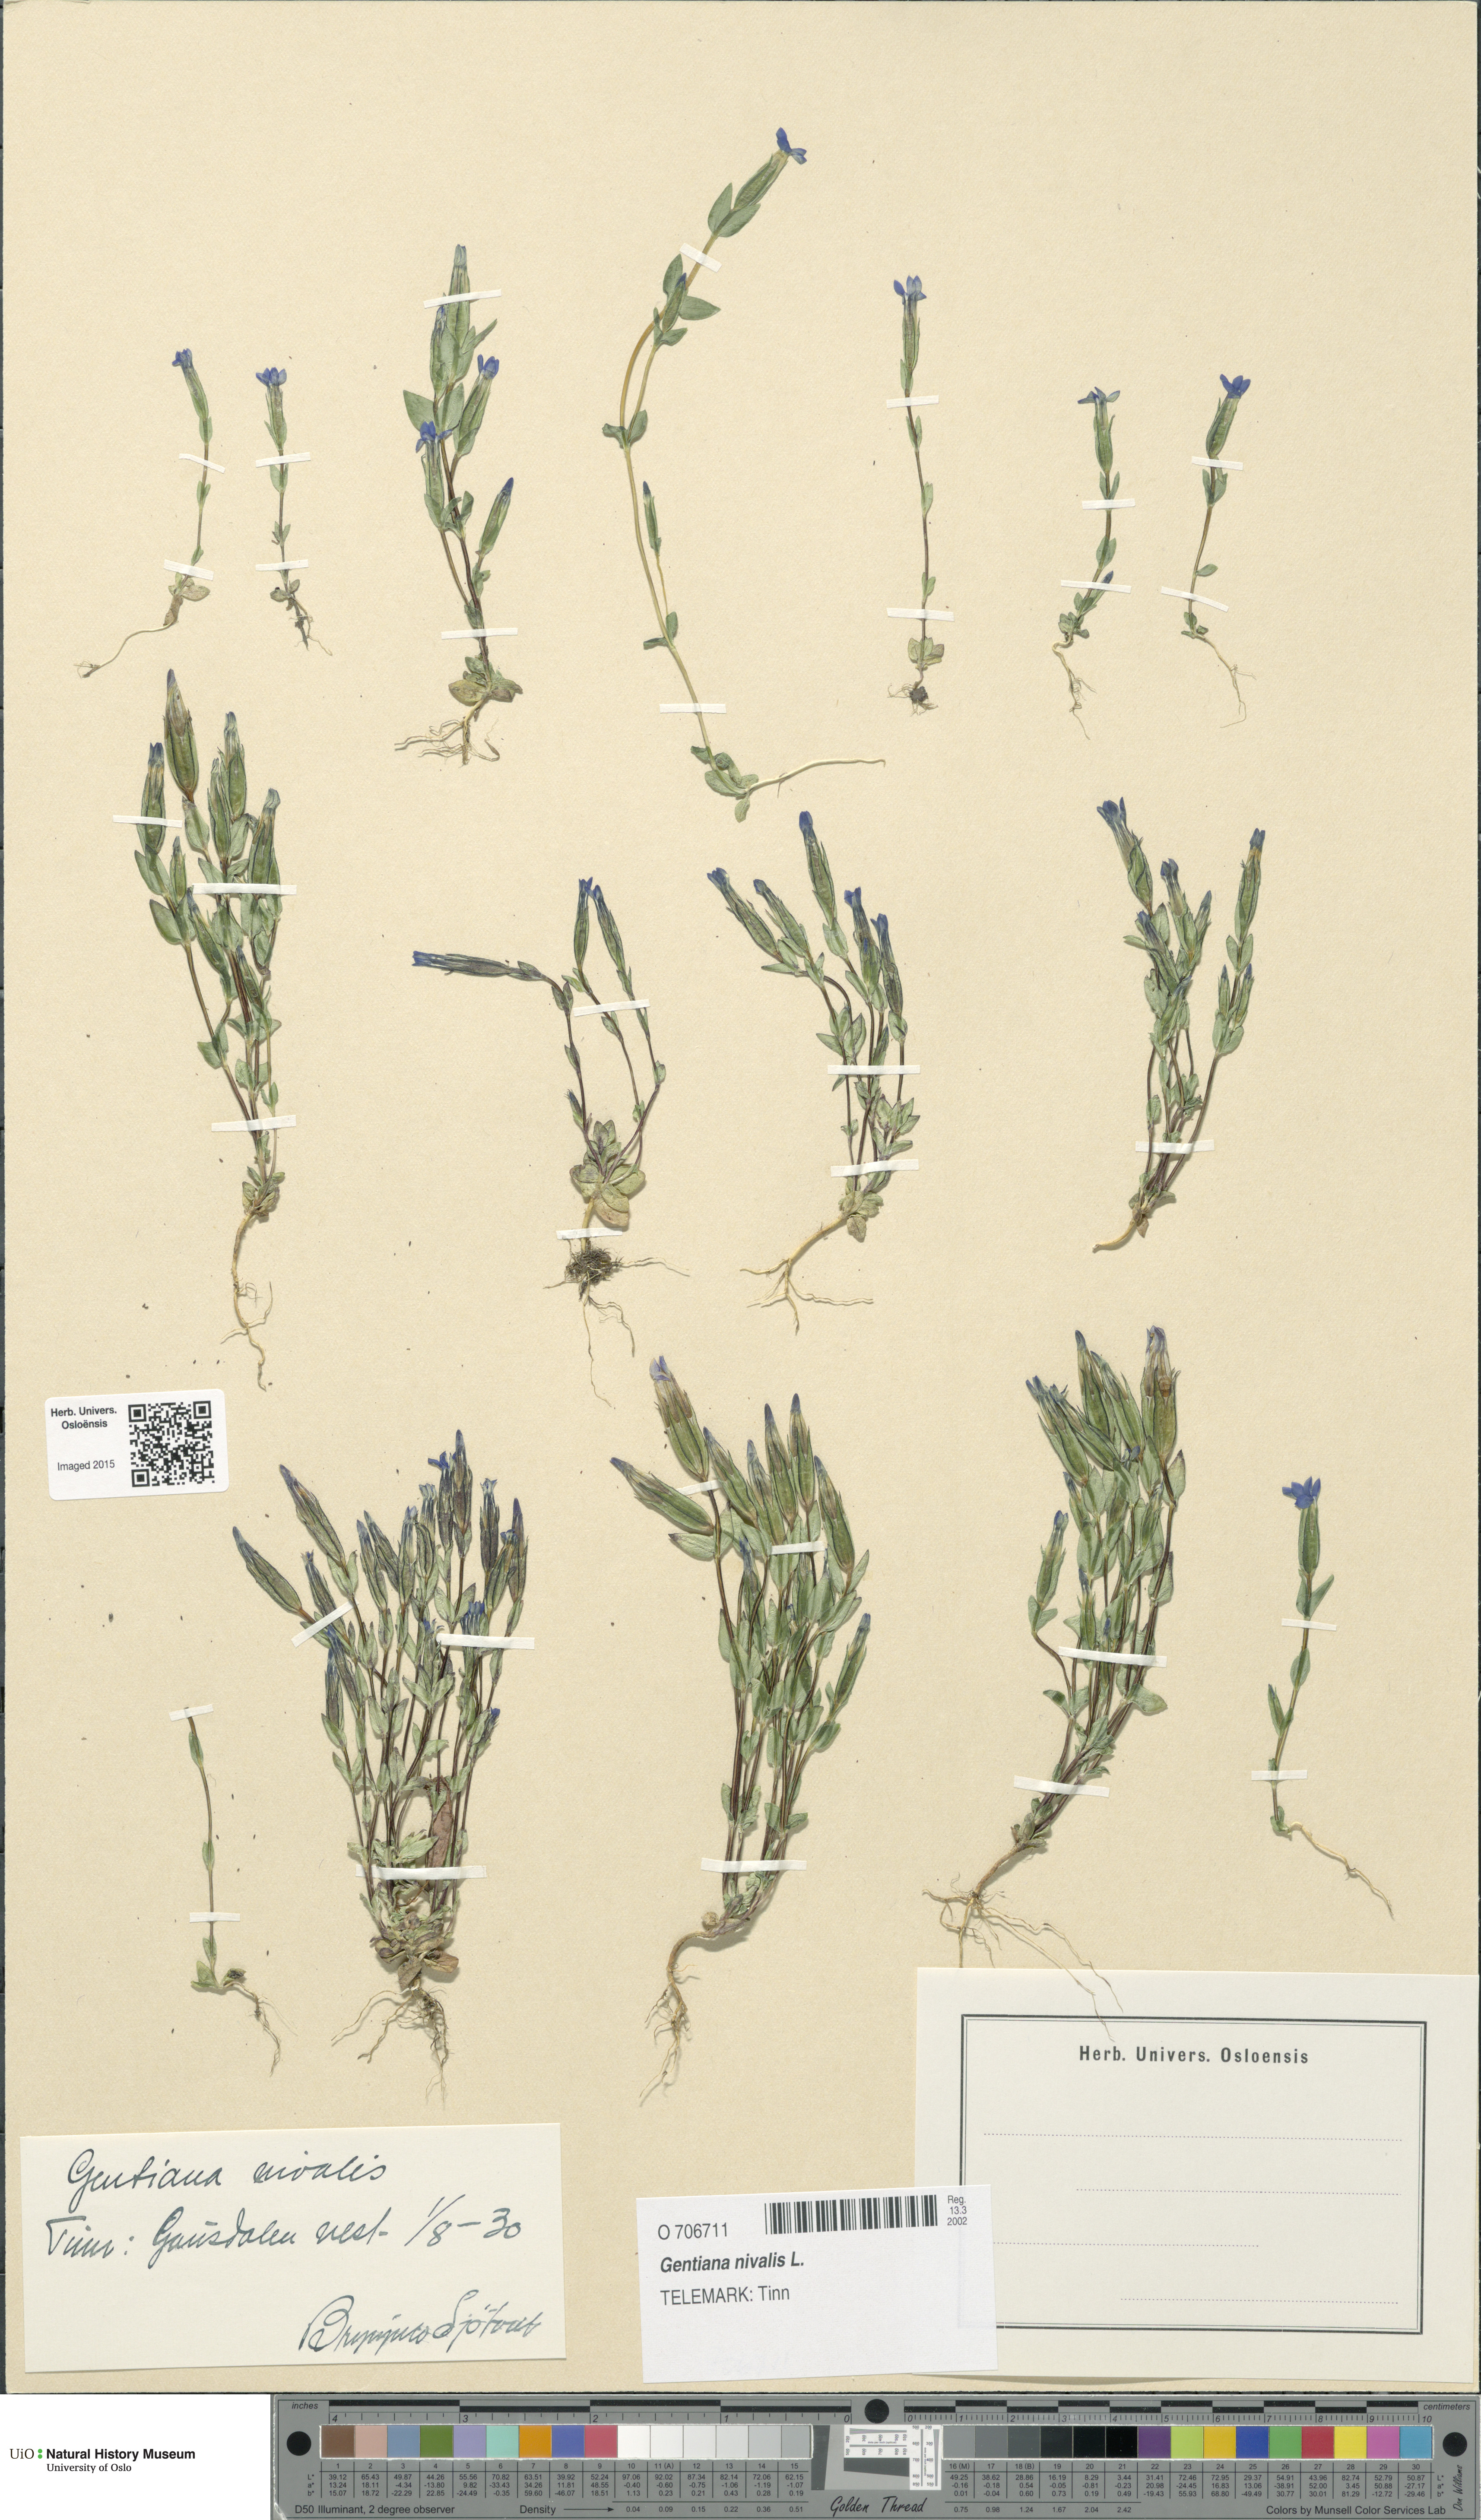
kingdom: Plantae
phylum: Tracheophyta
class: Magnoliopsida
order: Gentianales
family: Gentianaceae
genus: Gentiana
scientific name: Gentiana nivalis
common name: Alpine gentian
